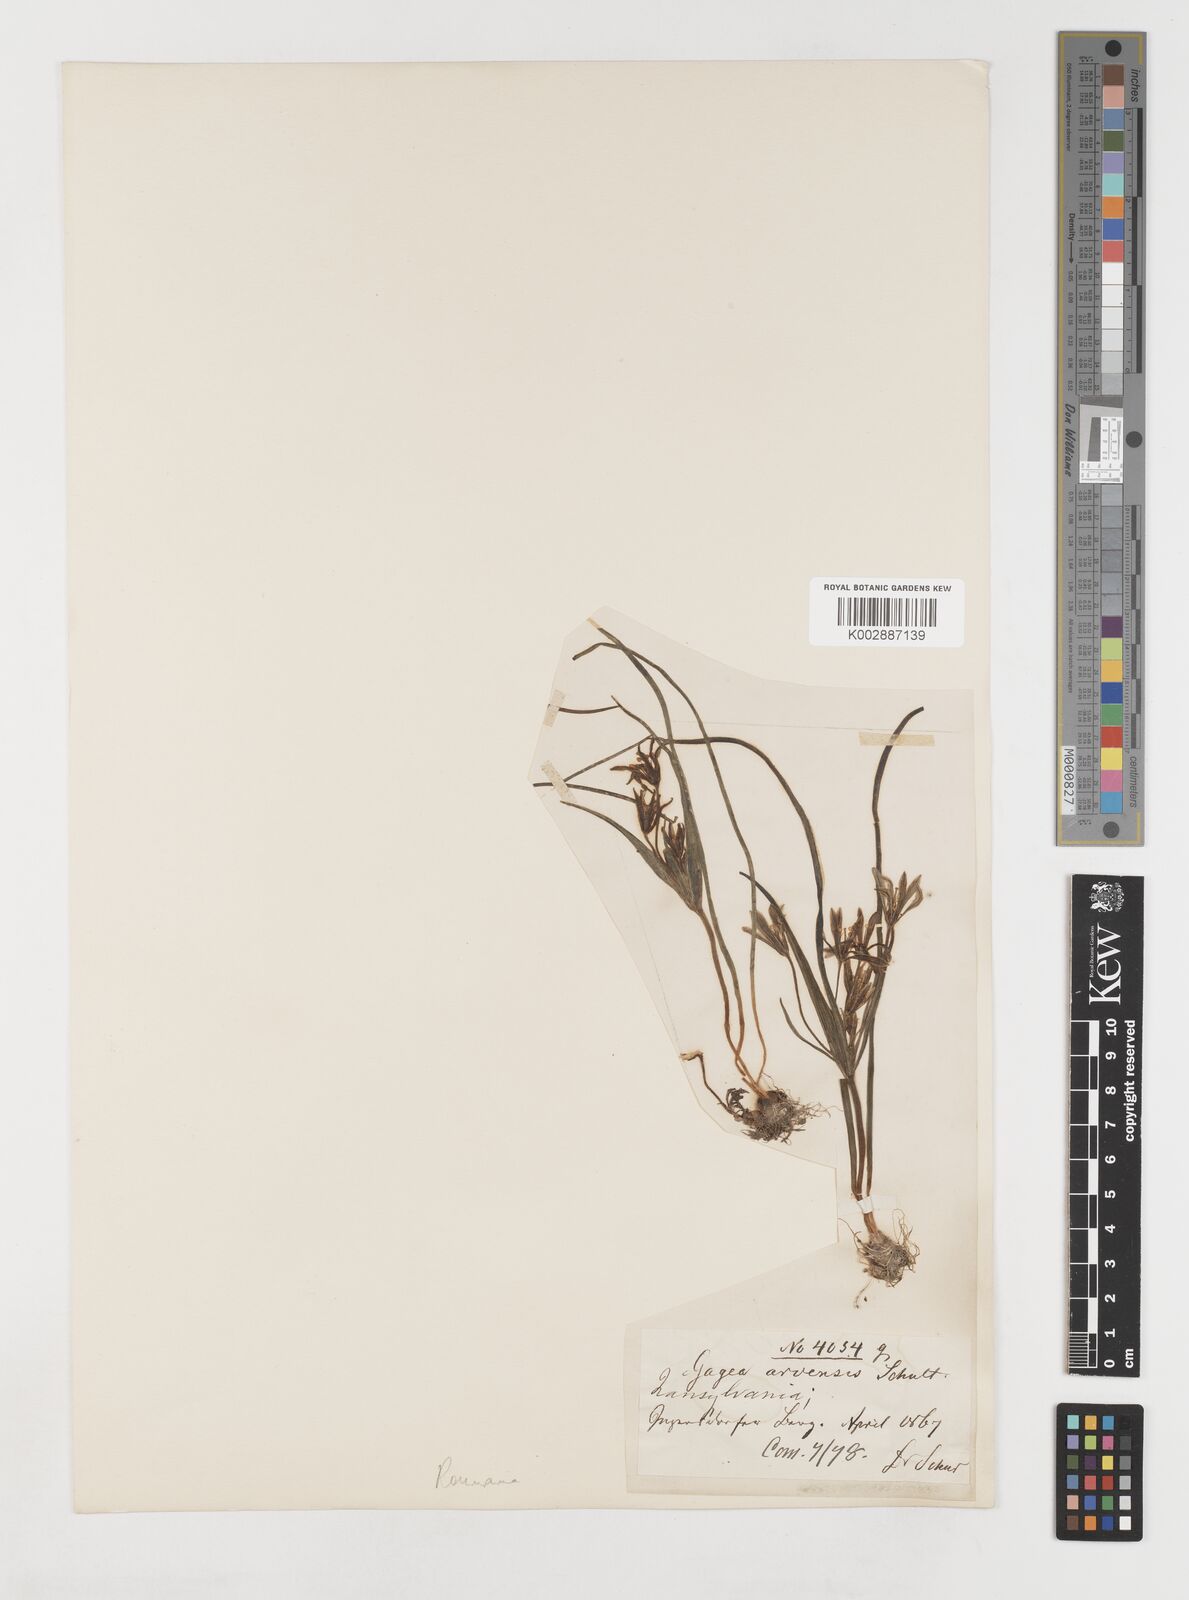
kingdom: Plantae
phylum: Tracheophyta
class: Liliopsida
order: Liliales
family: Liliaceae
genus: Gagea
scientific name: Gagea minima
